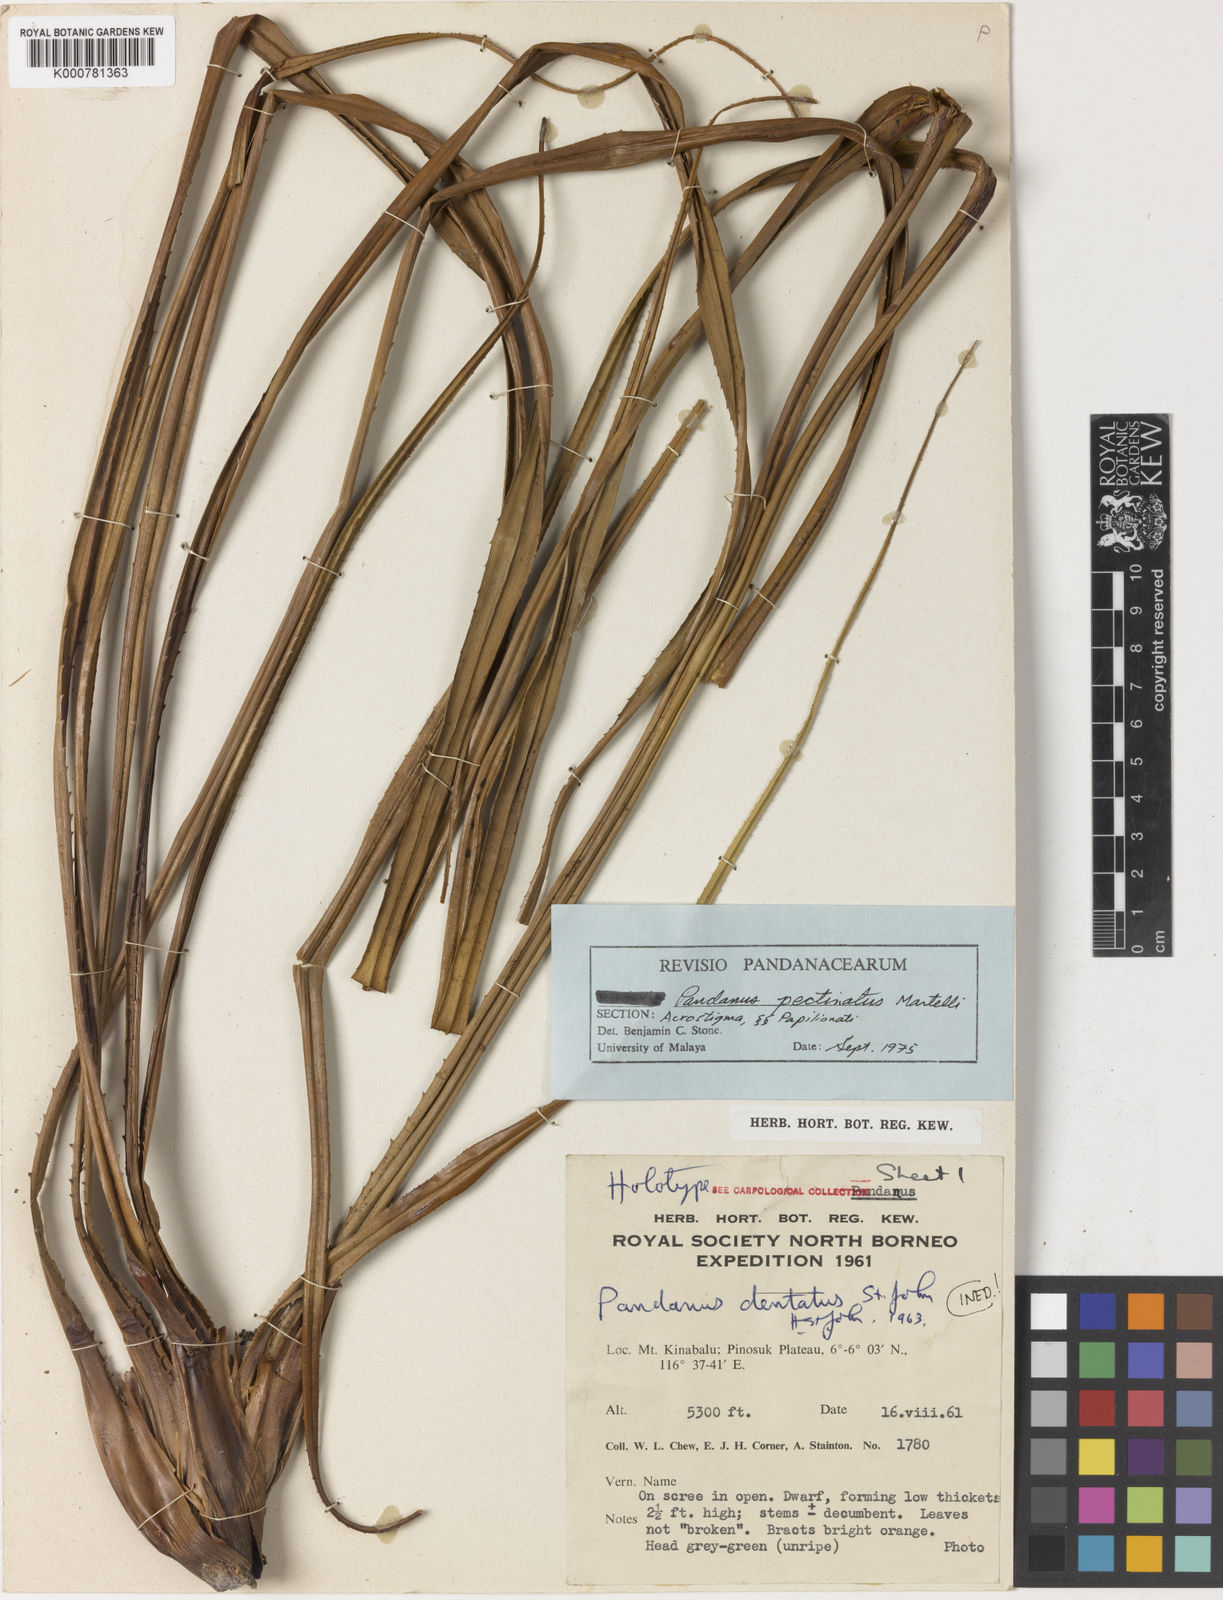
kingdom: Plantae
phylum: Tracheophyta
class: Liliopsida
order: Pandanales
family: Pandanaceae
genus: Benstonea
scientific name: Benstonea pectinata
